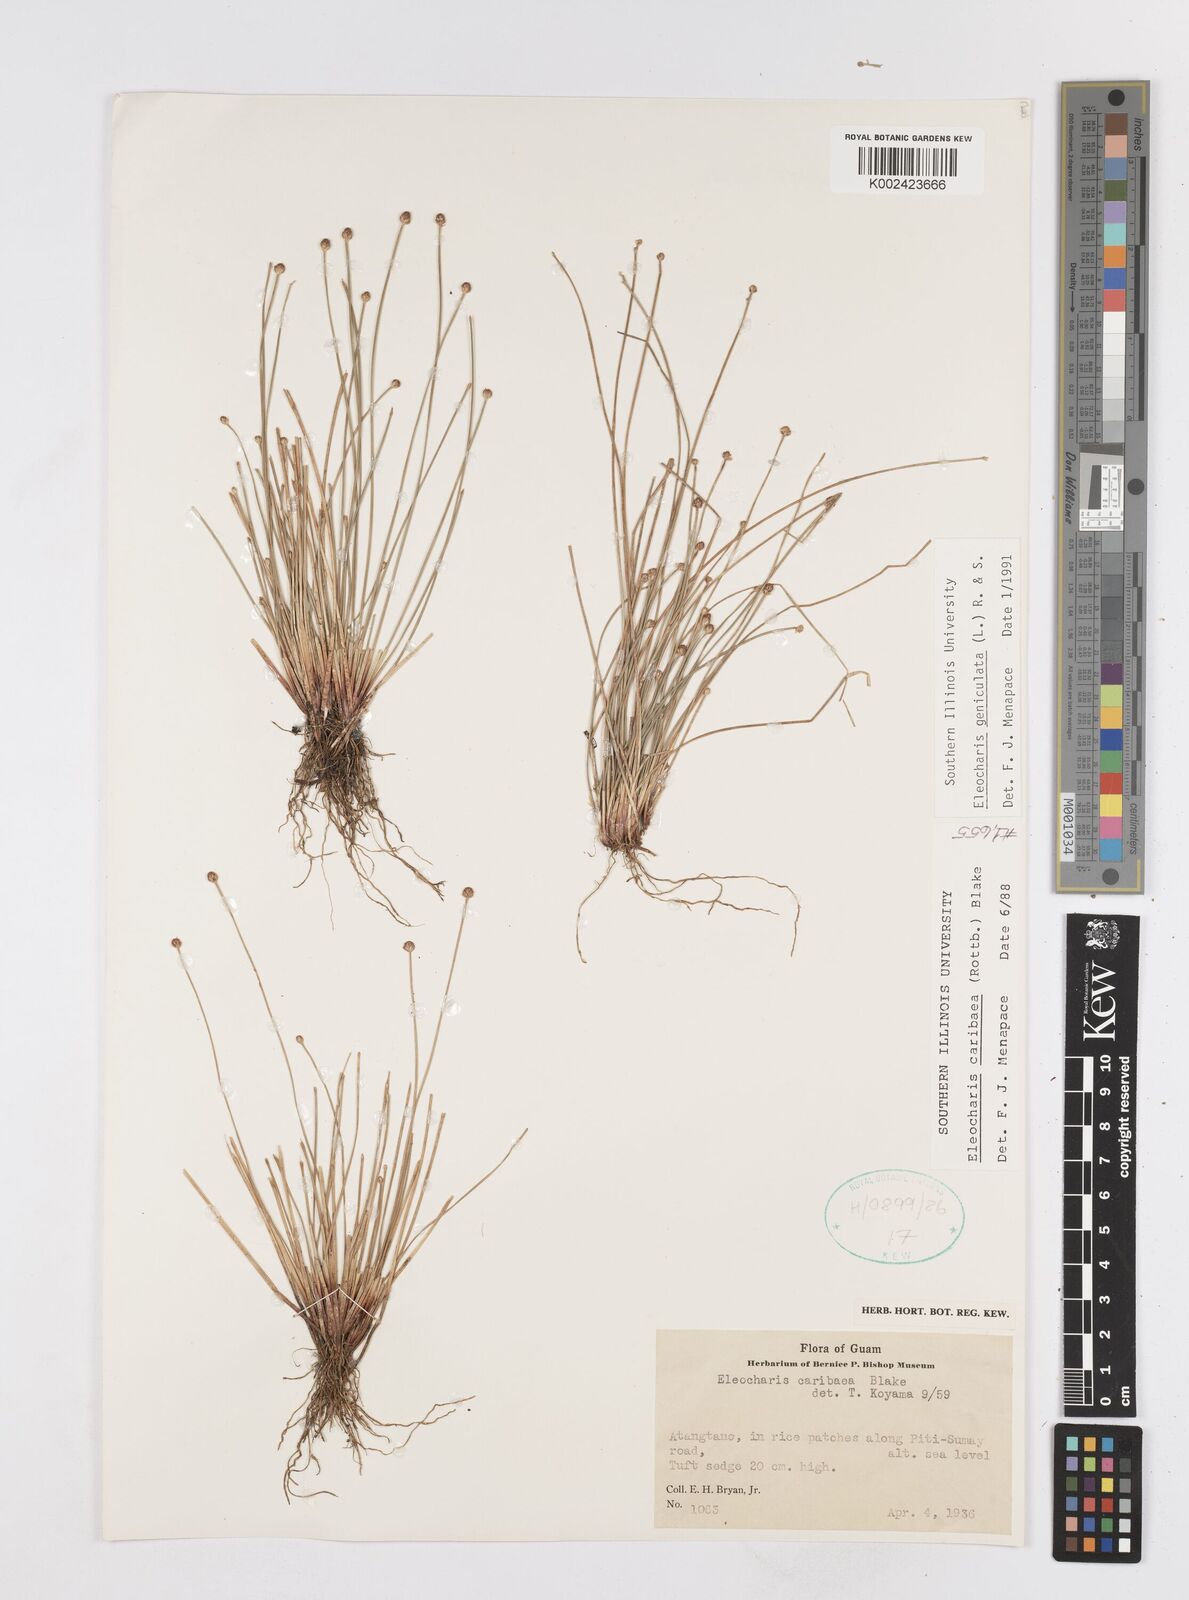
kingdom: Plantae
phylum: Tracheophyta
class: Liliopsida
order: Poales
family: Cyperaceae
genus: Eleocharis
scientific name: Eleocharis
